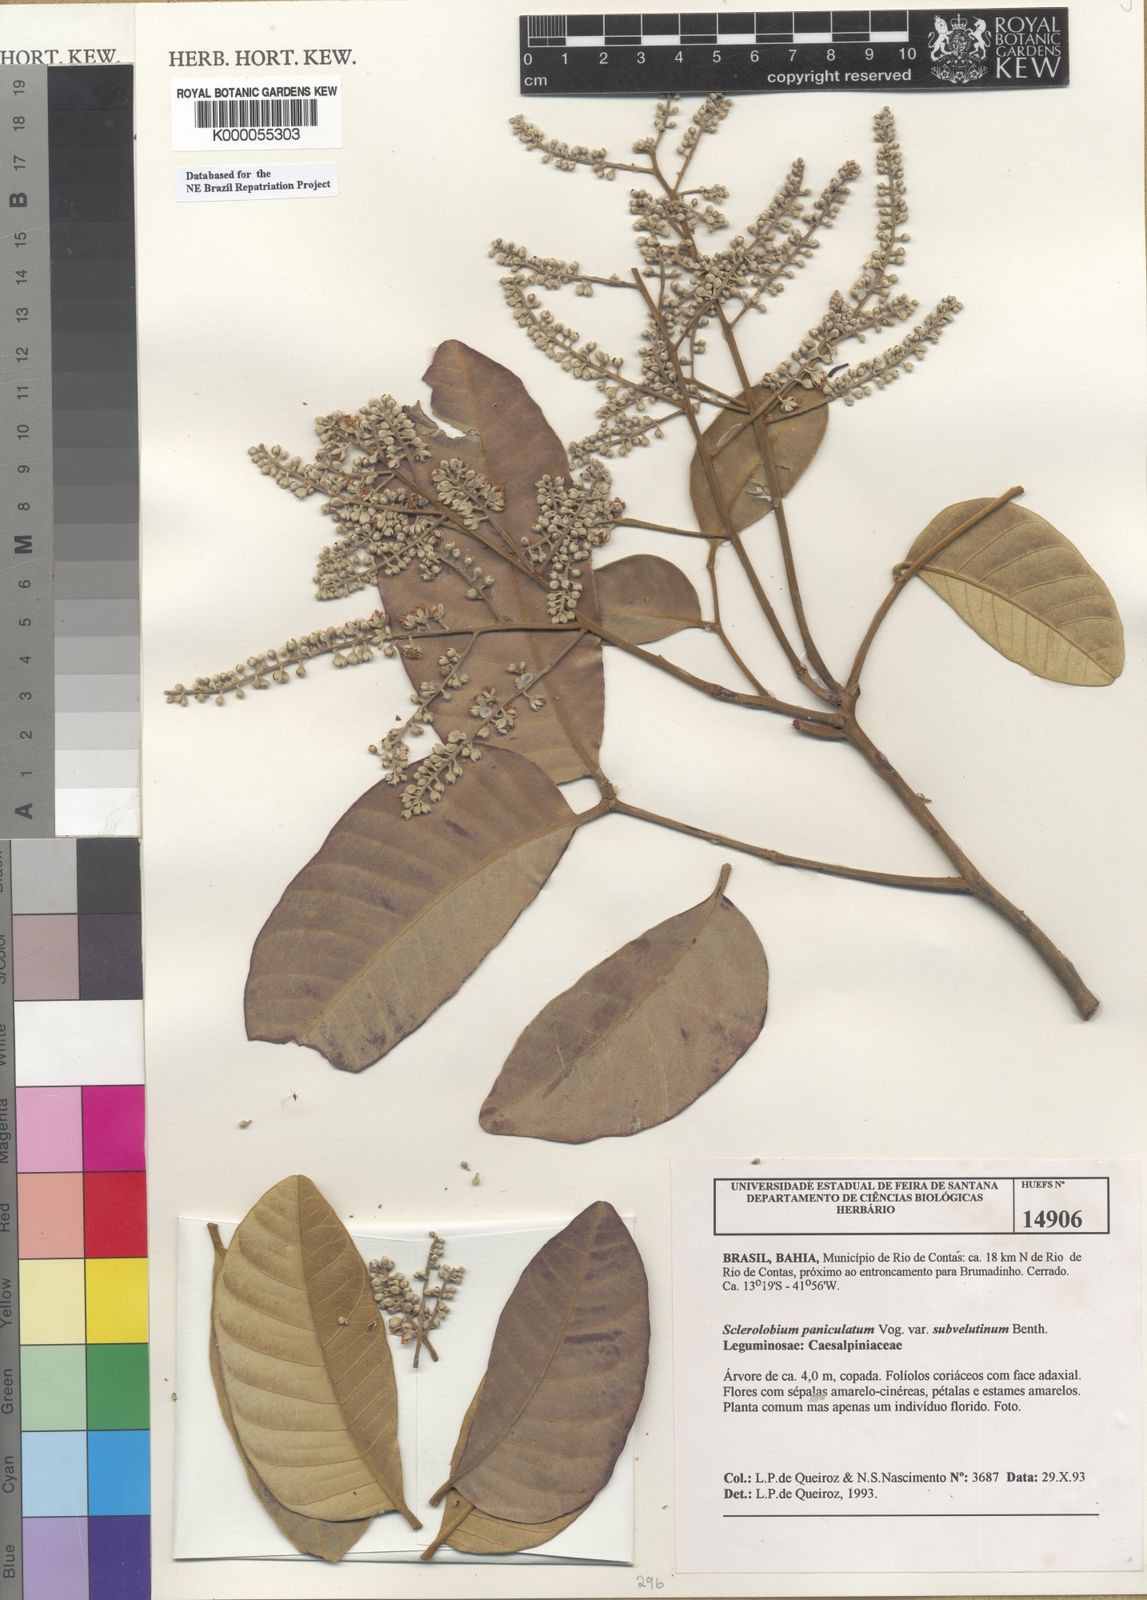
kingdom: Plantae
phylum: Tracheophyta
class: Magnoliopsida
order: Fabales
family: Fabaceae
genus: Tachigali
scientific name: Tachigali subvelutina
